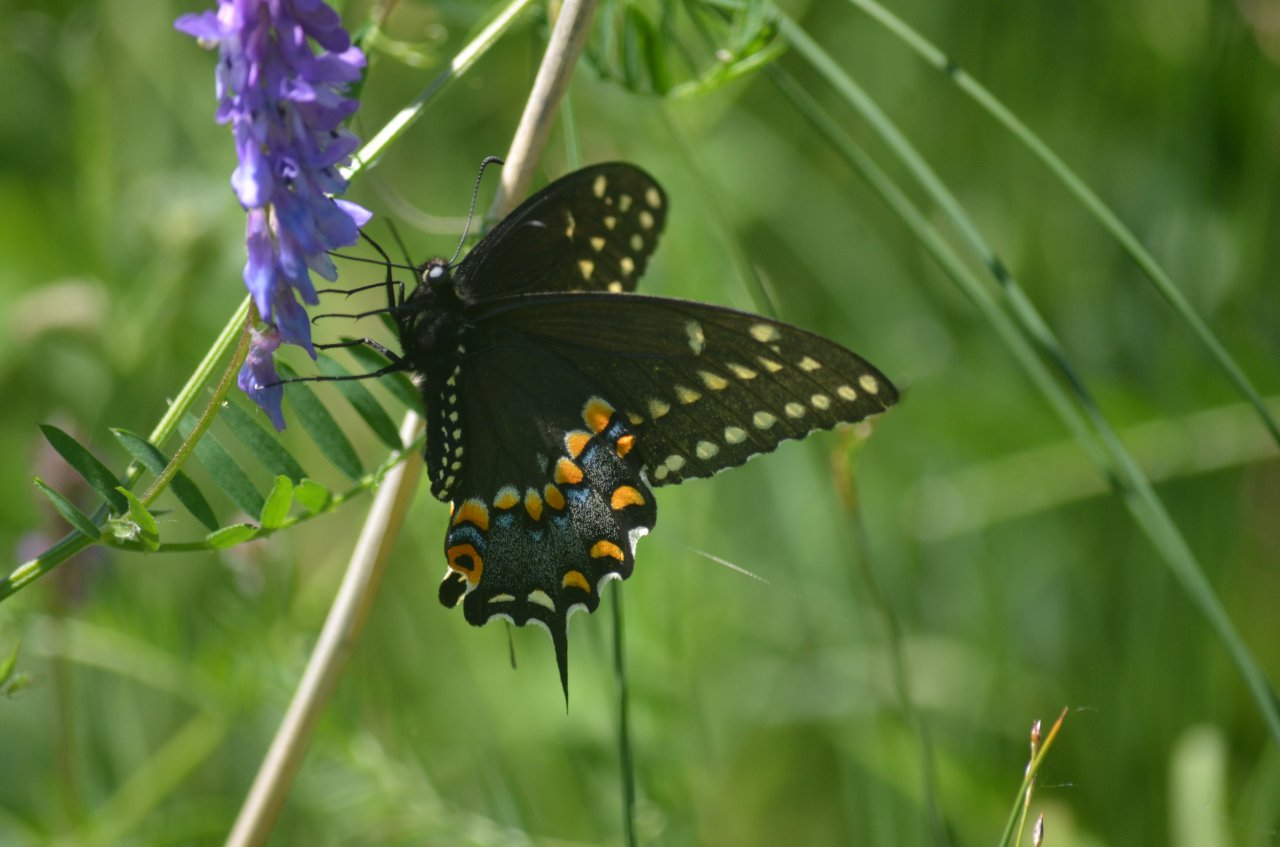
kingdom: Animalia
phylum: Arthropoda
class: Insecta
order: Lepidoptera
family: Papilionidae
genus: Papilio
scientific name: Papilio polyxenes
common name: Black Swallowtail
